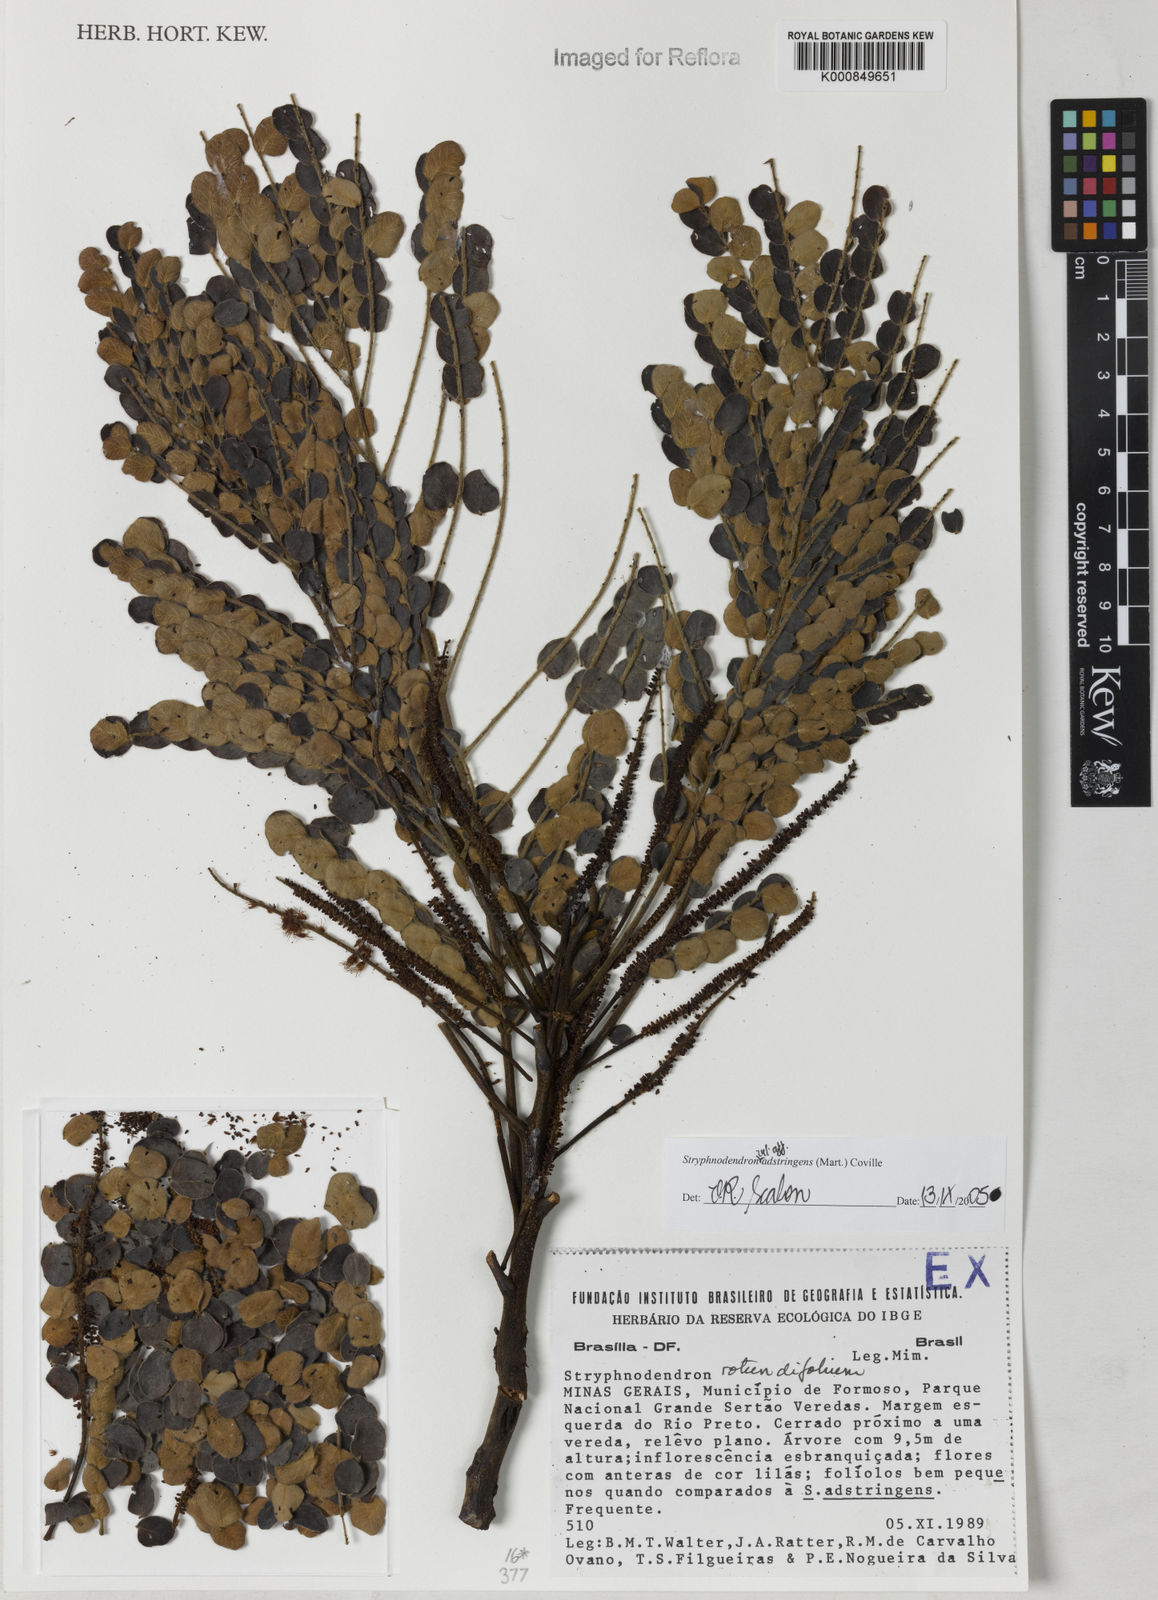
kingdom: Plantae
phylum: Tracheophyta
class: Magnoliopsida
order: Fabales
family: Fabaceae
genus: Stryphnodendron
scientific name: Stryphnodendron adstringens
